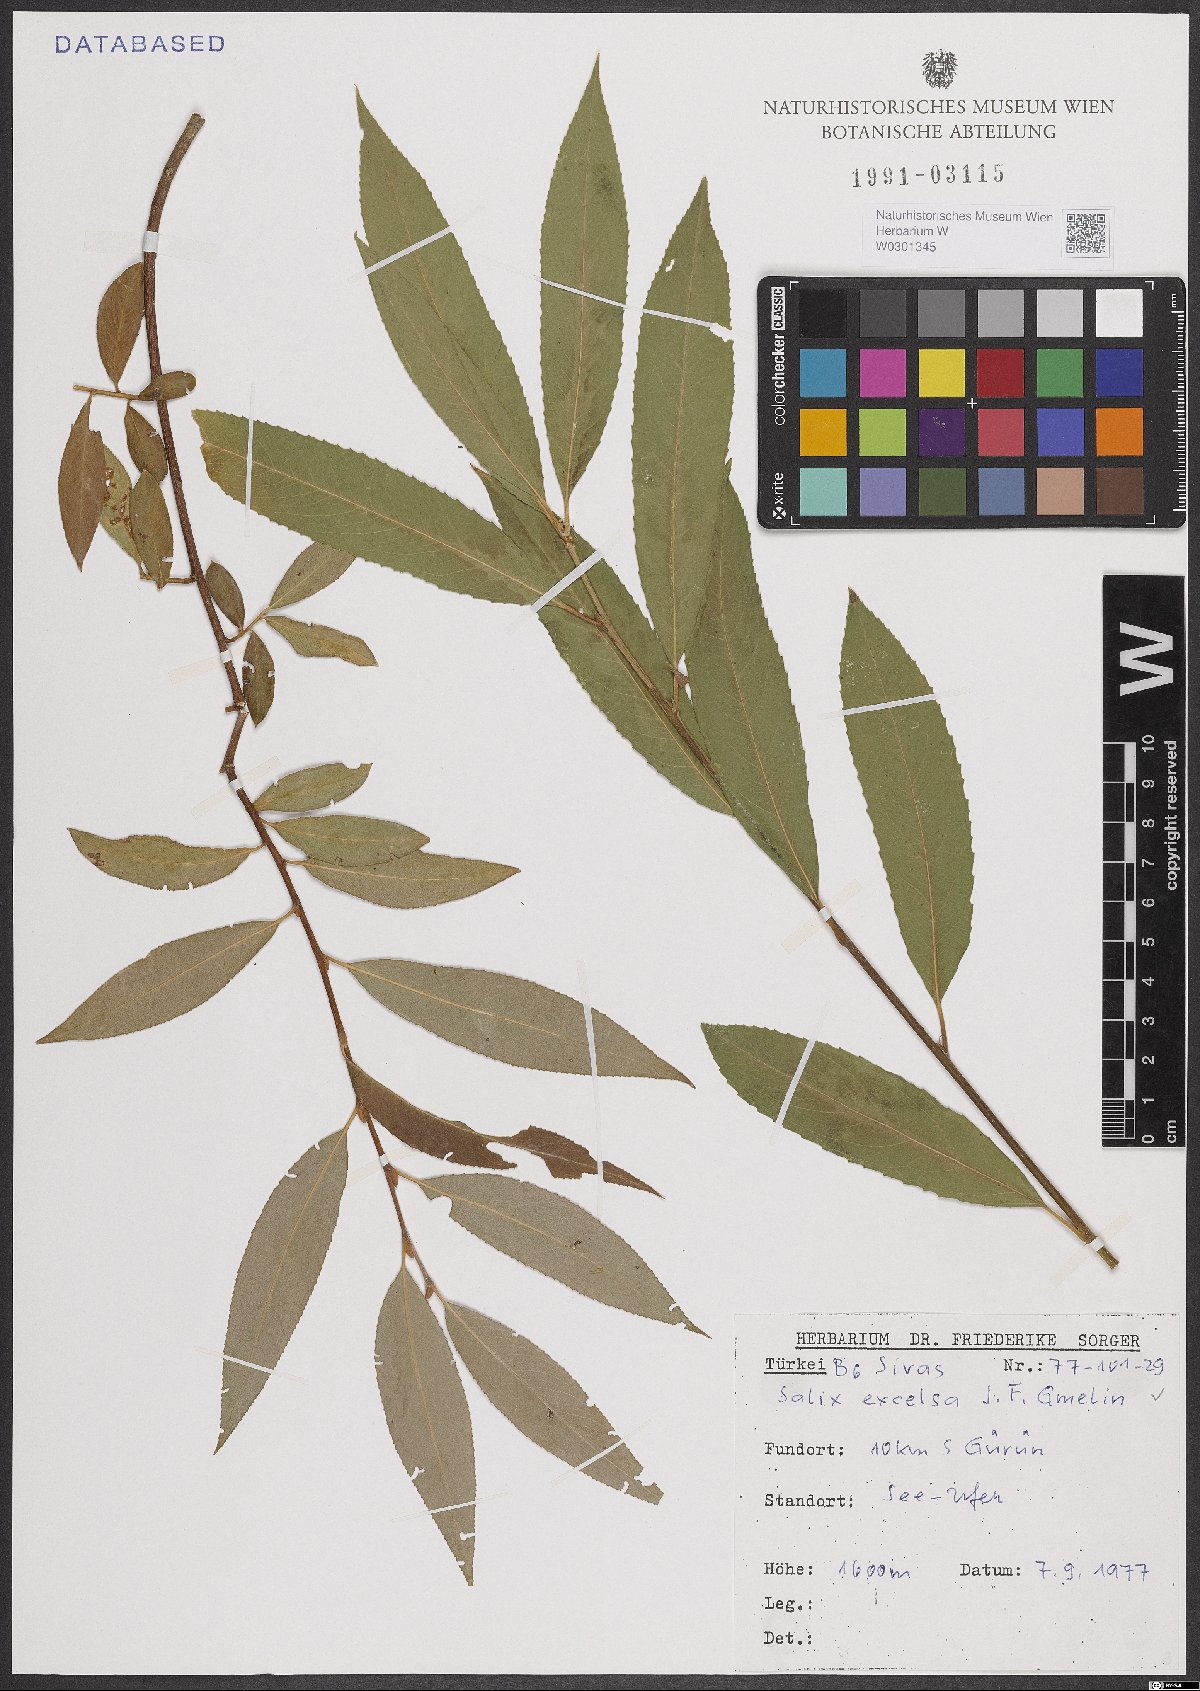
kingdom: Plantae
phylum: Tracheophyta
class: Magnoliopsida
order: Malpighiales
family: Salicaceae
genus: Salix
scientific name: Salix excelsa
